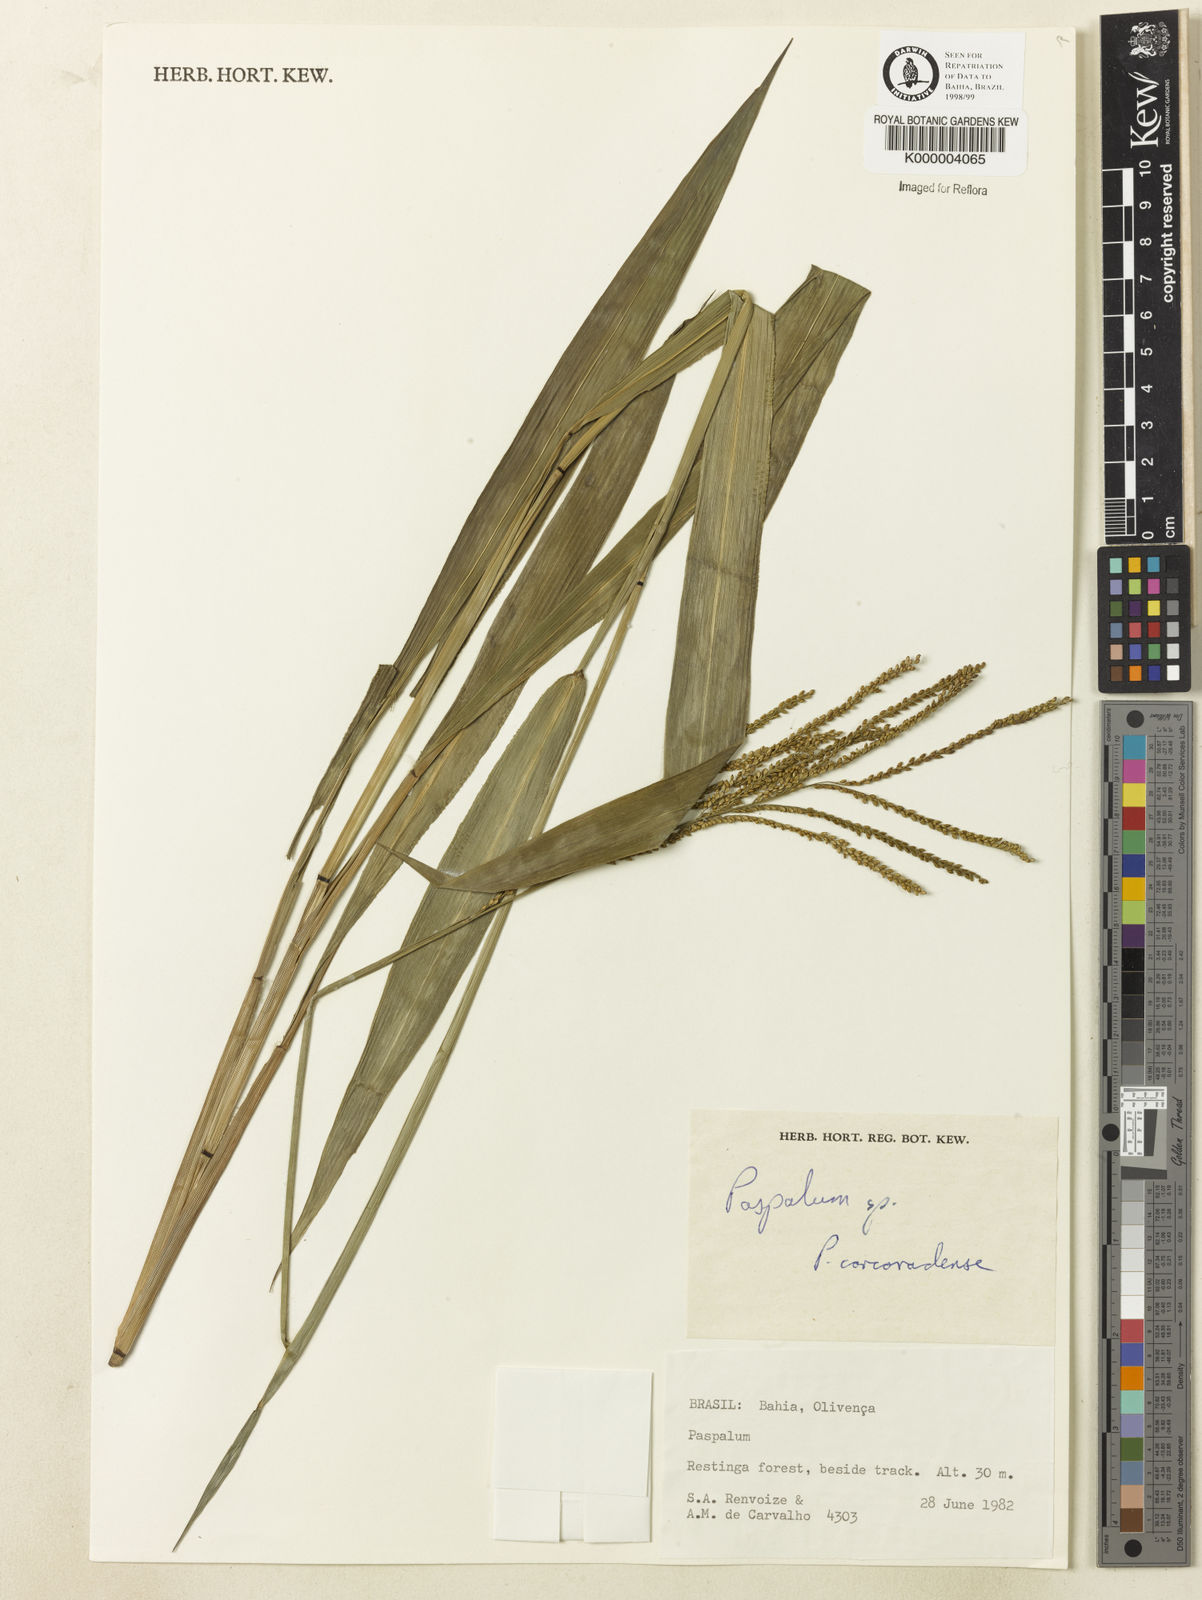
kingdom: Plantae
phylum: Tracheophyta
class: Liliopsida
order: Poales
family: Poaceae
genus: Paspalum
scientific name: Paspalum corcovadense
